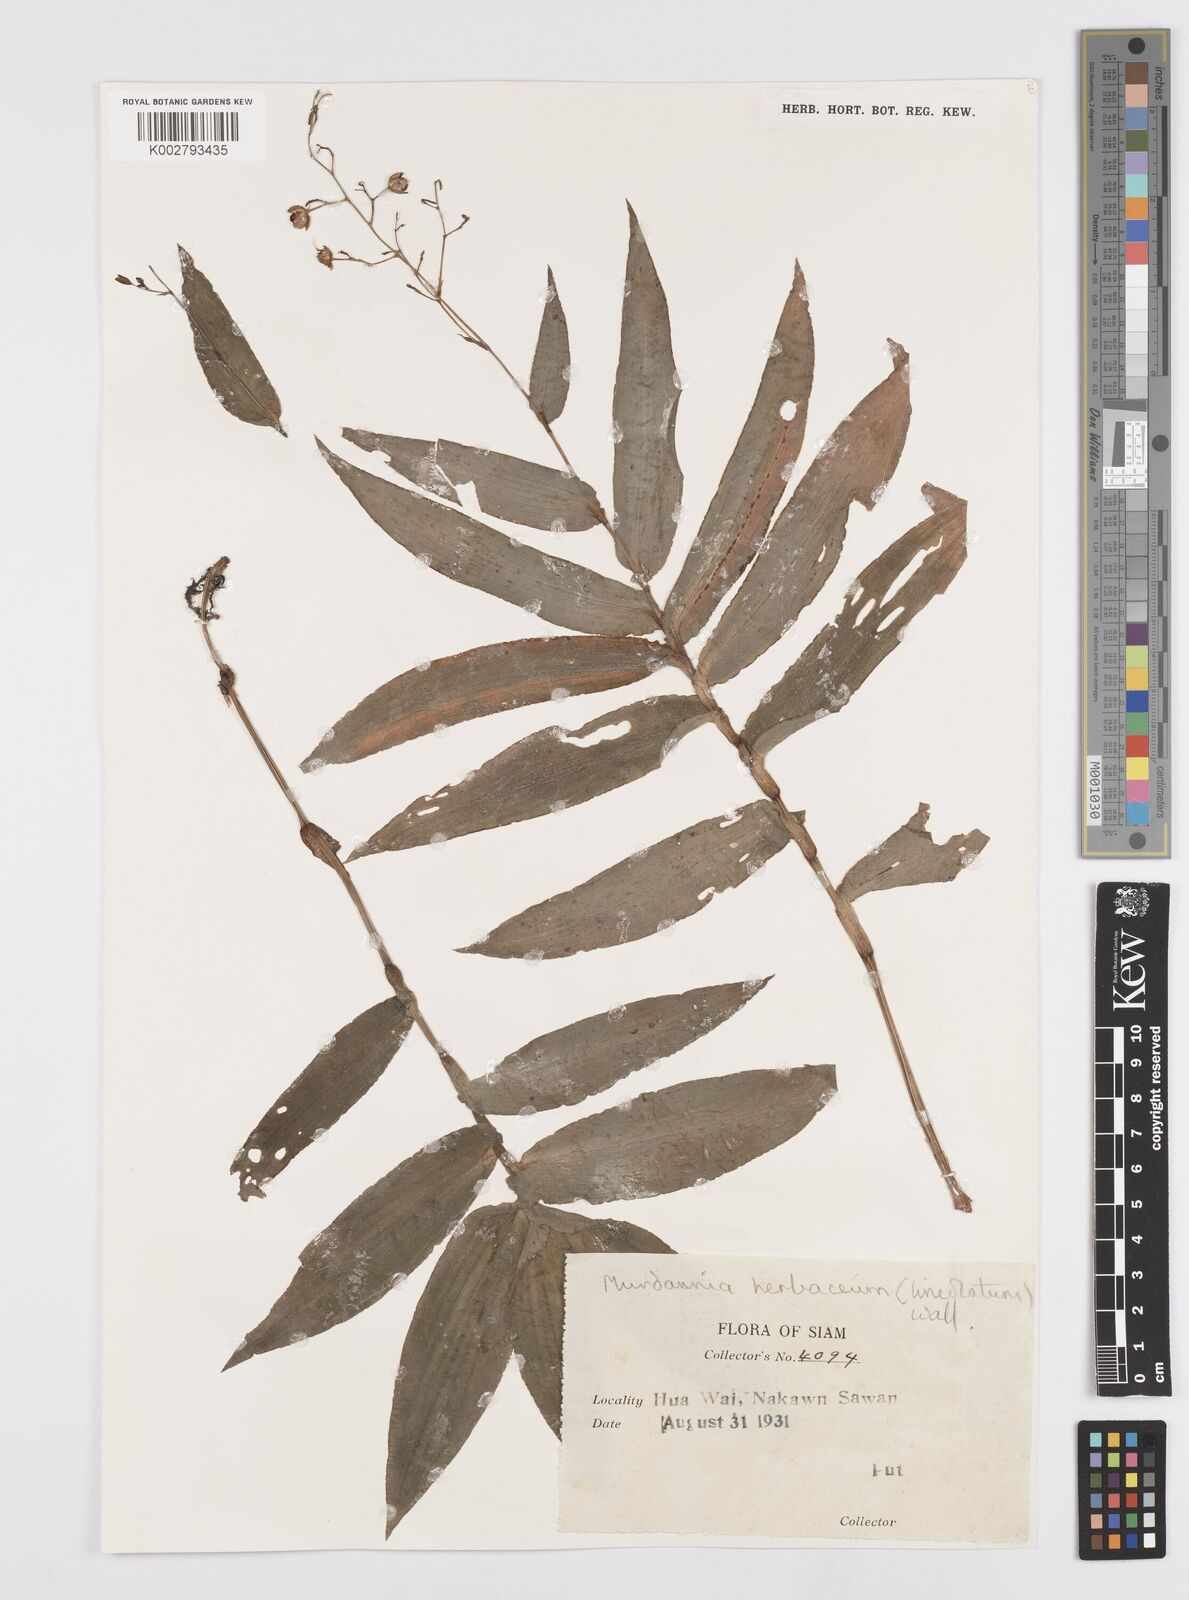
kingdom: Plantae
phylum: Tracheophyta
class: Liliopsida
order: Commelinales
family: Commelinaceae
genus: Murdannia
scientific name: Murdannia
